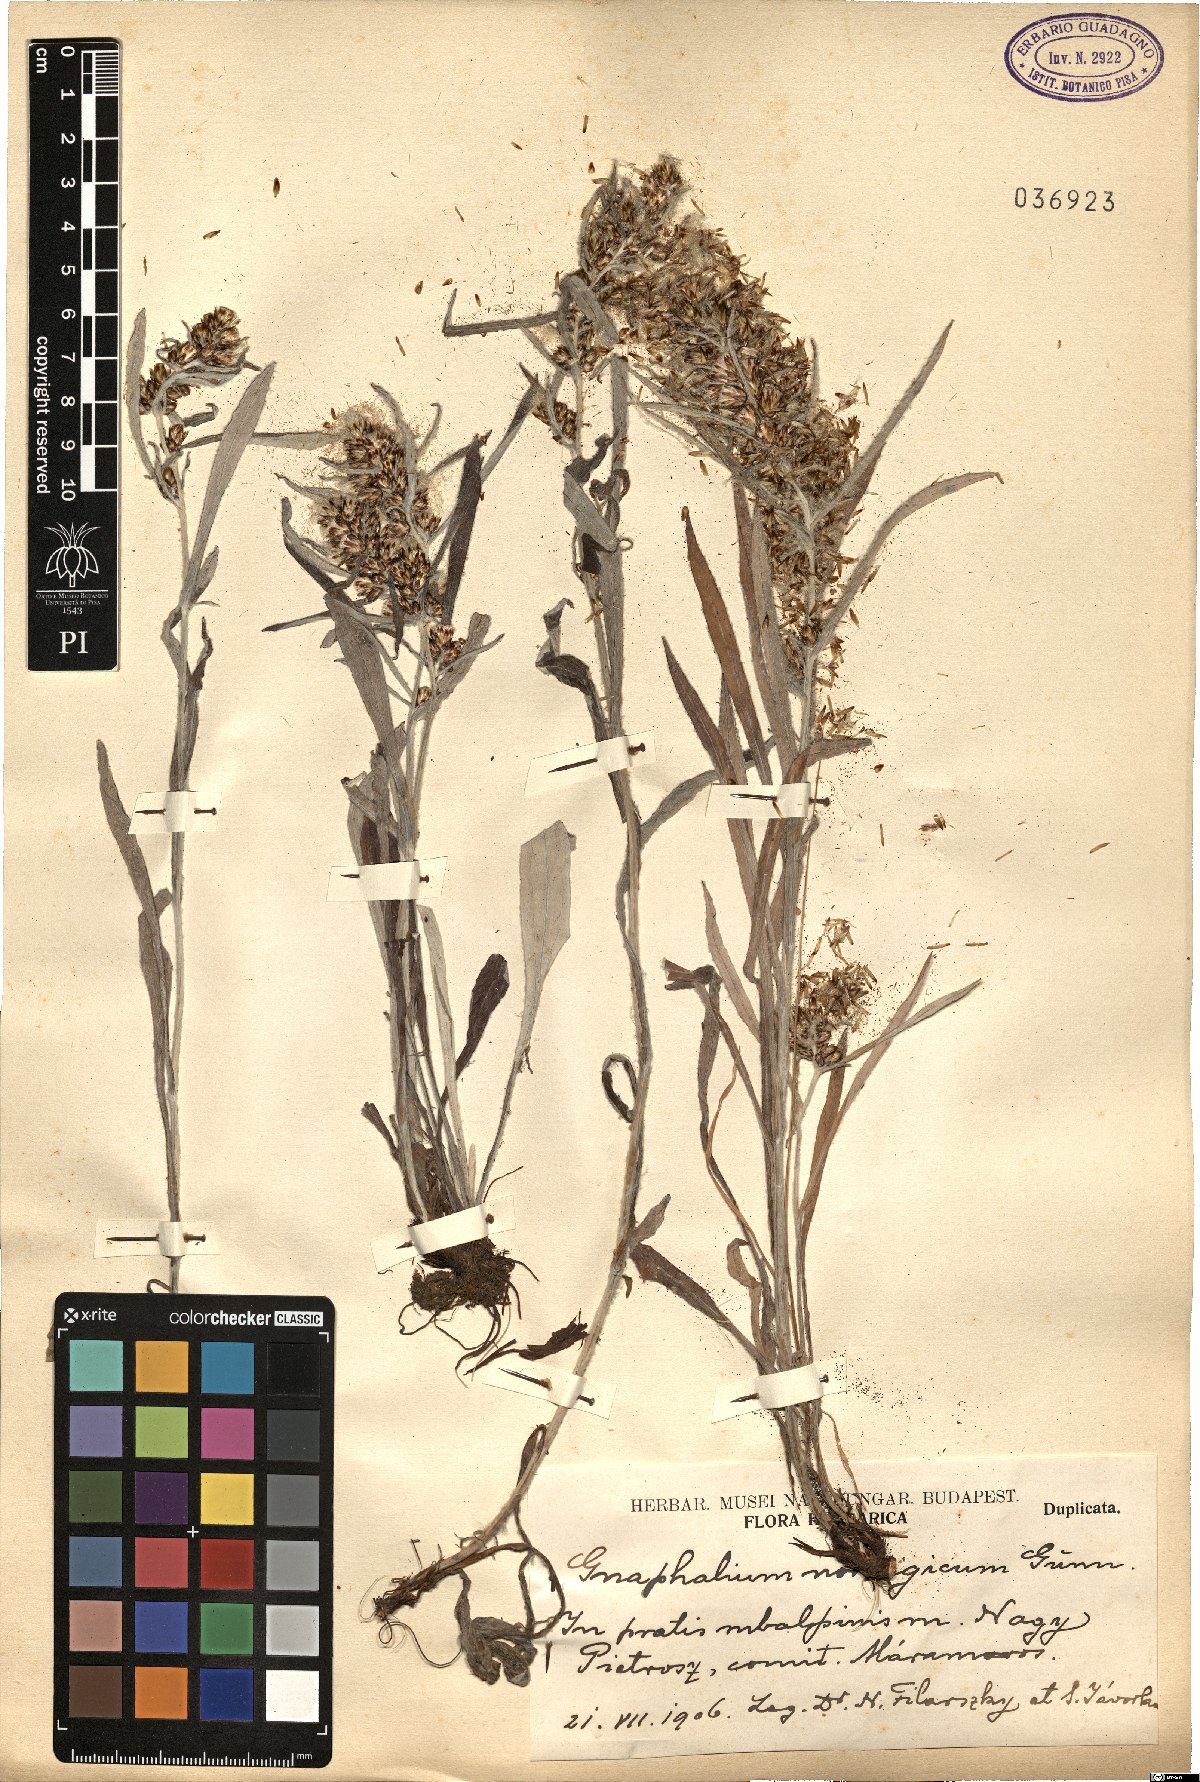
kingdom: Plantae
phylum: Tracheophyta
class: Magnoliopsida
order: Asterales
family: Asteraceae
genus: Omalotheca
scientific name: Omalotheca norvegica
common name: Norwegian arctic-cudweed
